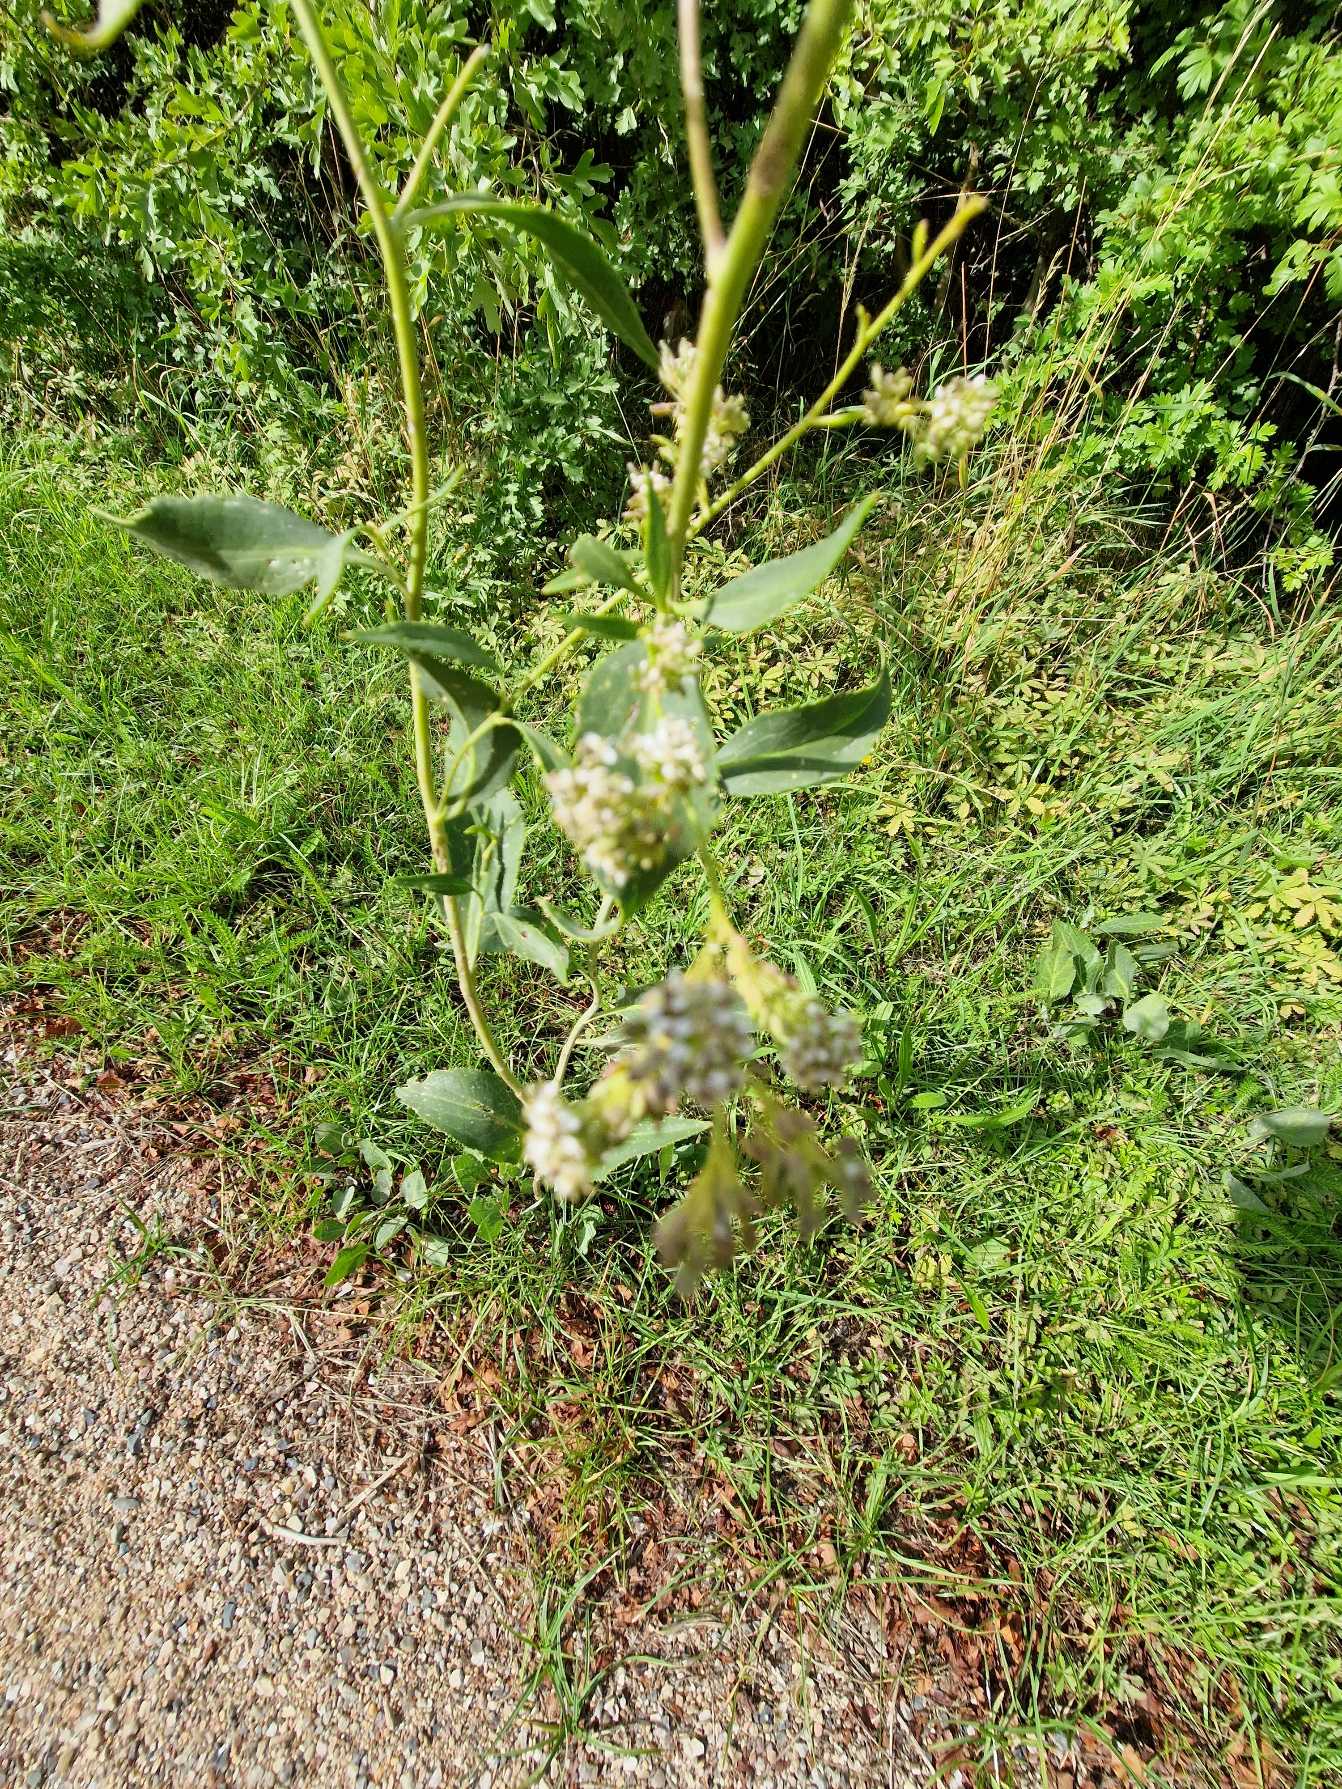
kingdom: Plantae
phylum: Tracheophyta
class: Magnoliopsida
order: Brassicales
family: Brassicaceae
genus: Lepidium
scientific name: Lepidium latifolium
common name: Strand-karse
